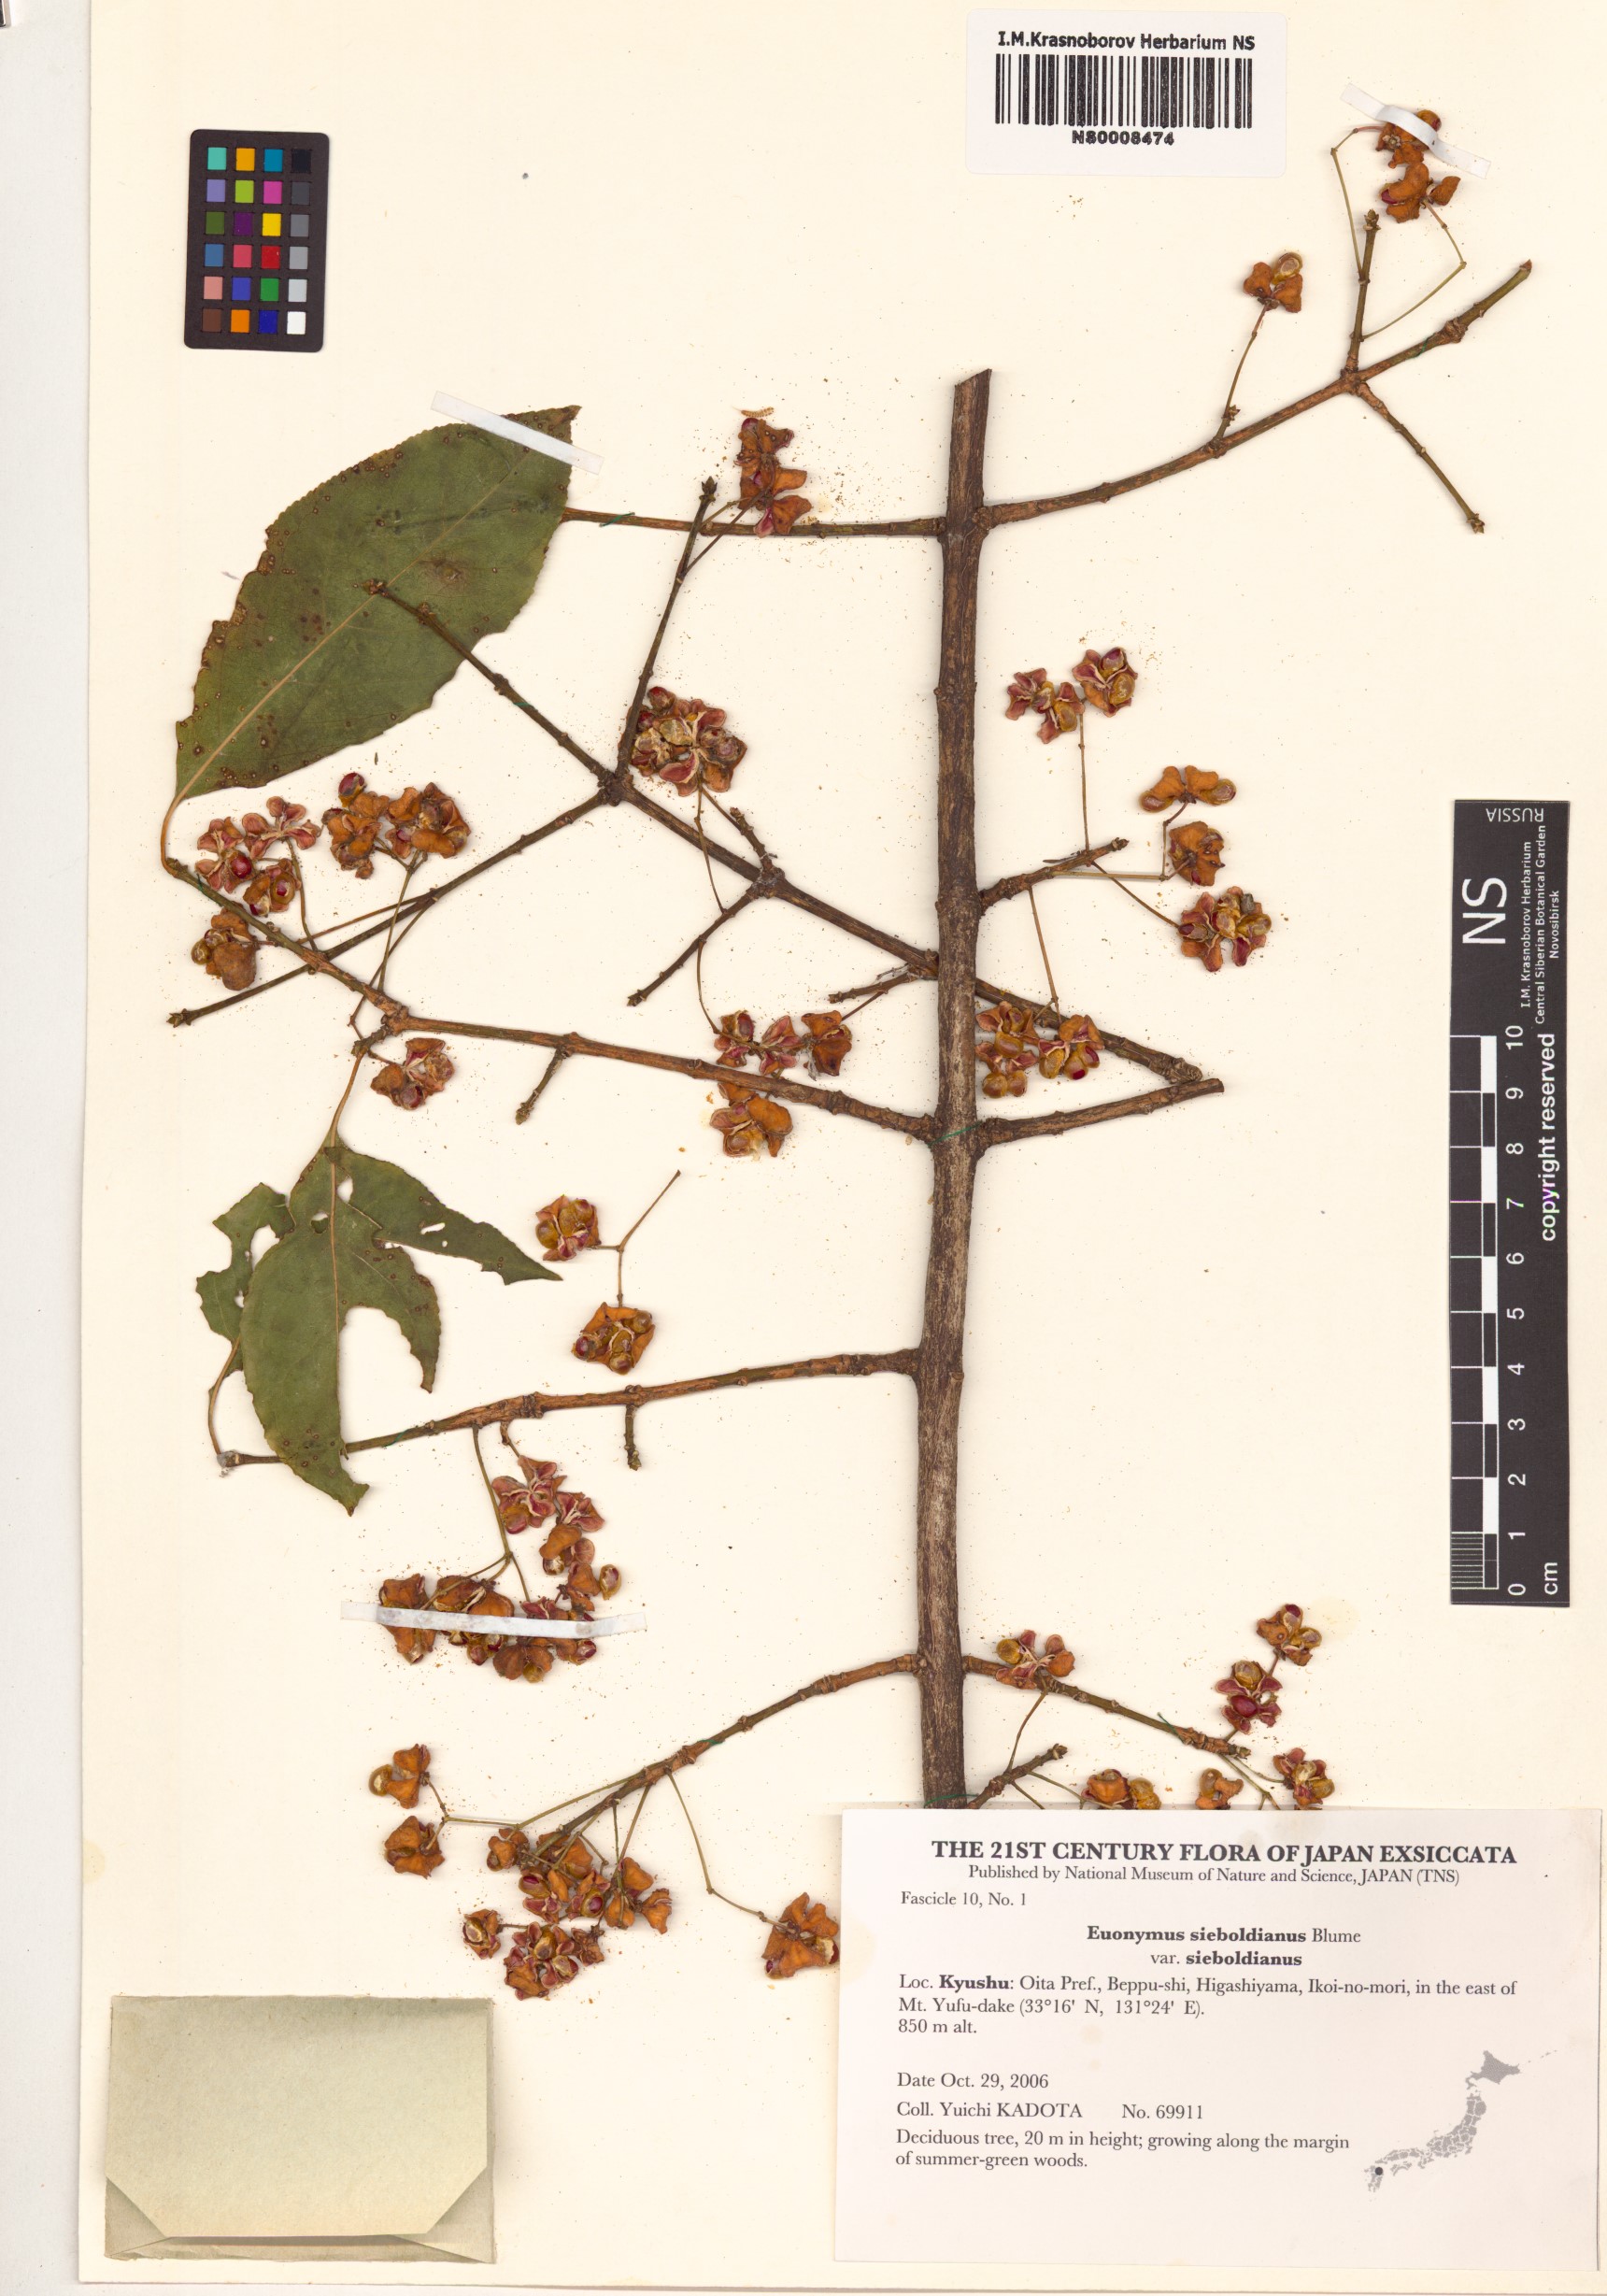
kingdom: Plantae
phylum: Tracheophyta
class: Magnoliopsida
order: Celastrales
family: Celastraceae
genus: Euonymus
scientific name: Euonymus hamiltonianus
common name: Hamilton's spindletree
